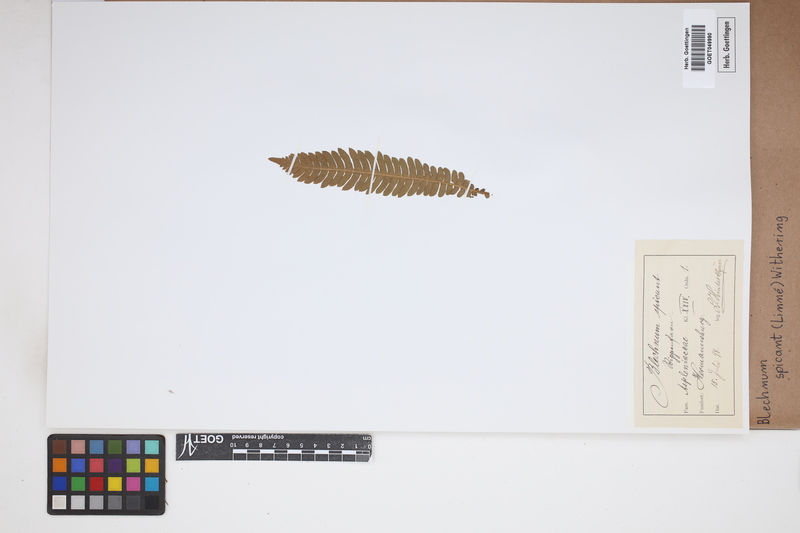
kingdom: Plantae
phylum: Tracheophyta
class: Polypodiopsida
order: Polypodiales
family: Blechnaceae
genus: Struthiopteris
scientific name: Struthiopteris spicant
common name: Deer fern
